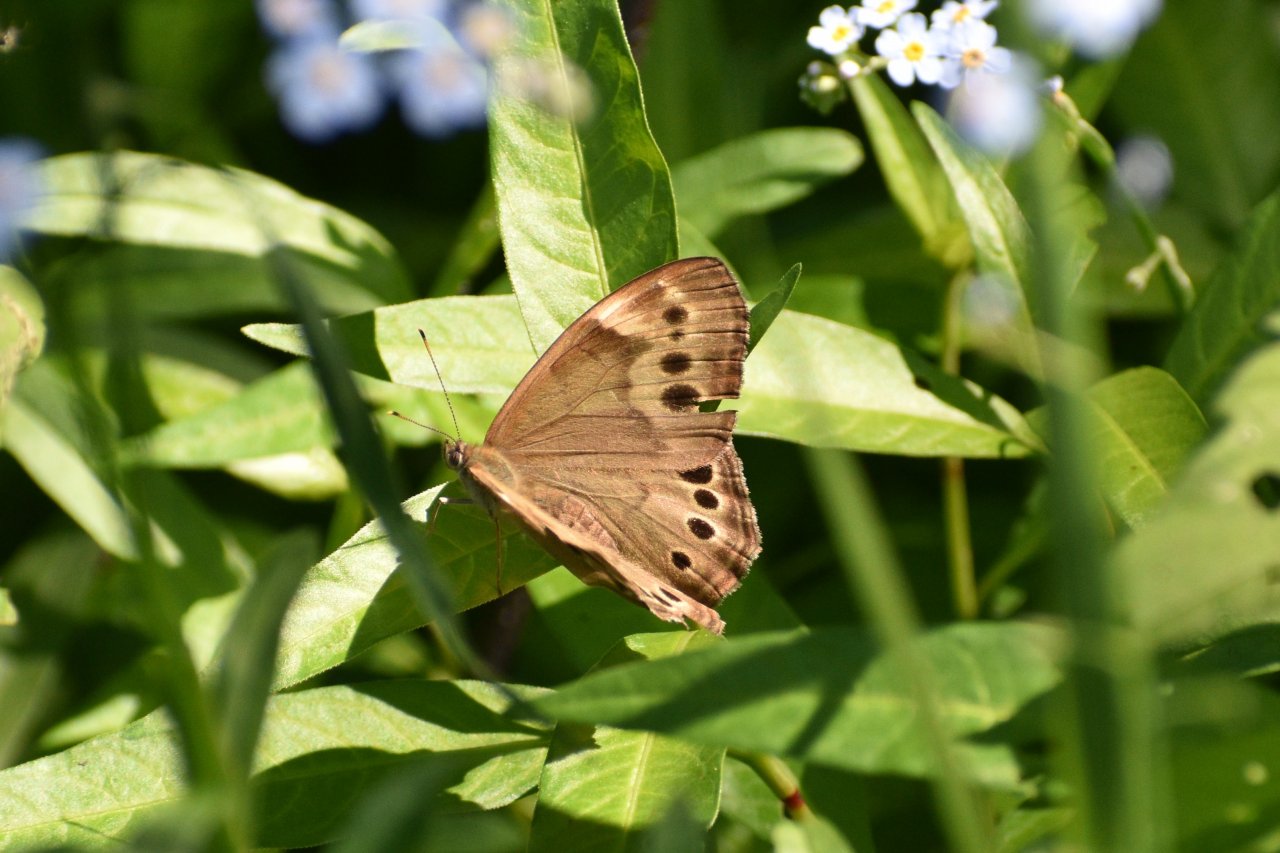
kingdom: Animalia
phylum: Arthropoda
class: Insecta
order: Lepidoptera
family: Nymphalidae
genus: Lethe
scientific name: Lethe anthedon
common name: Northern Pearly-Eye
